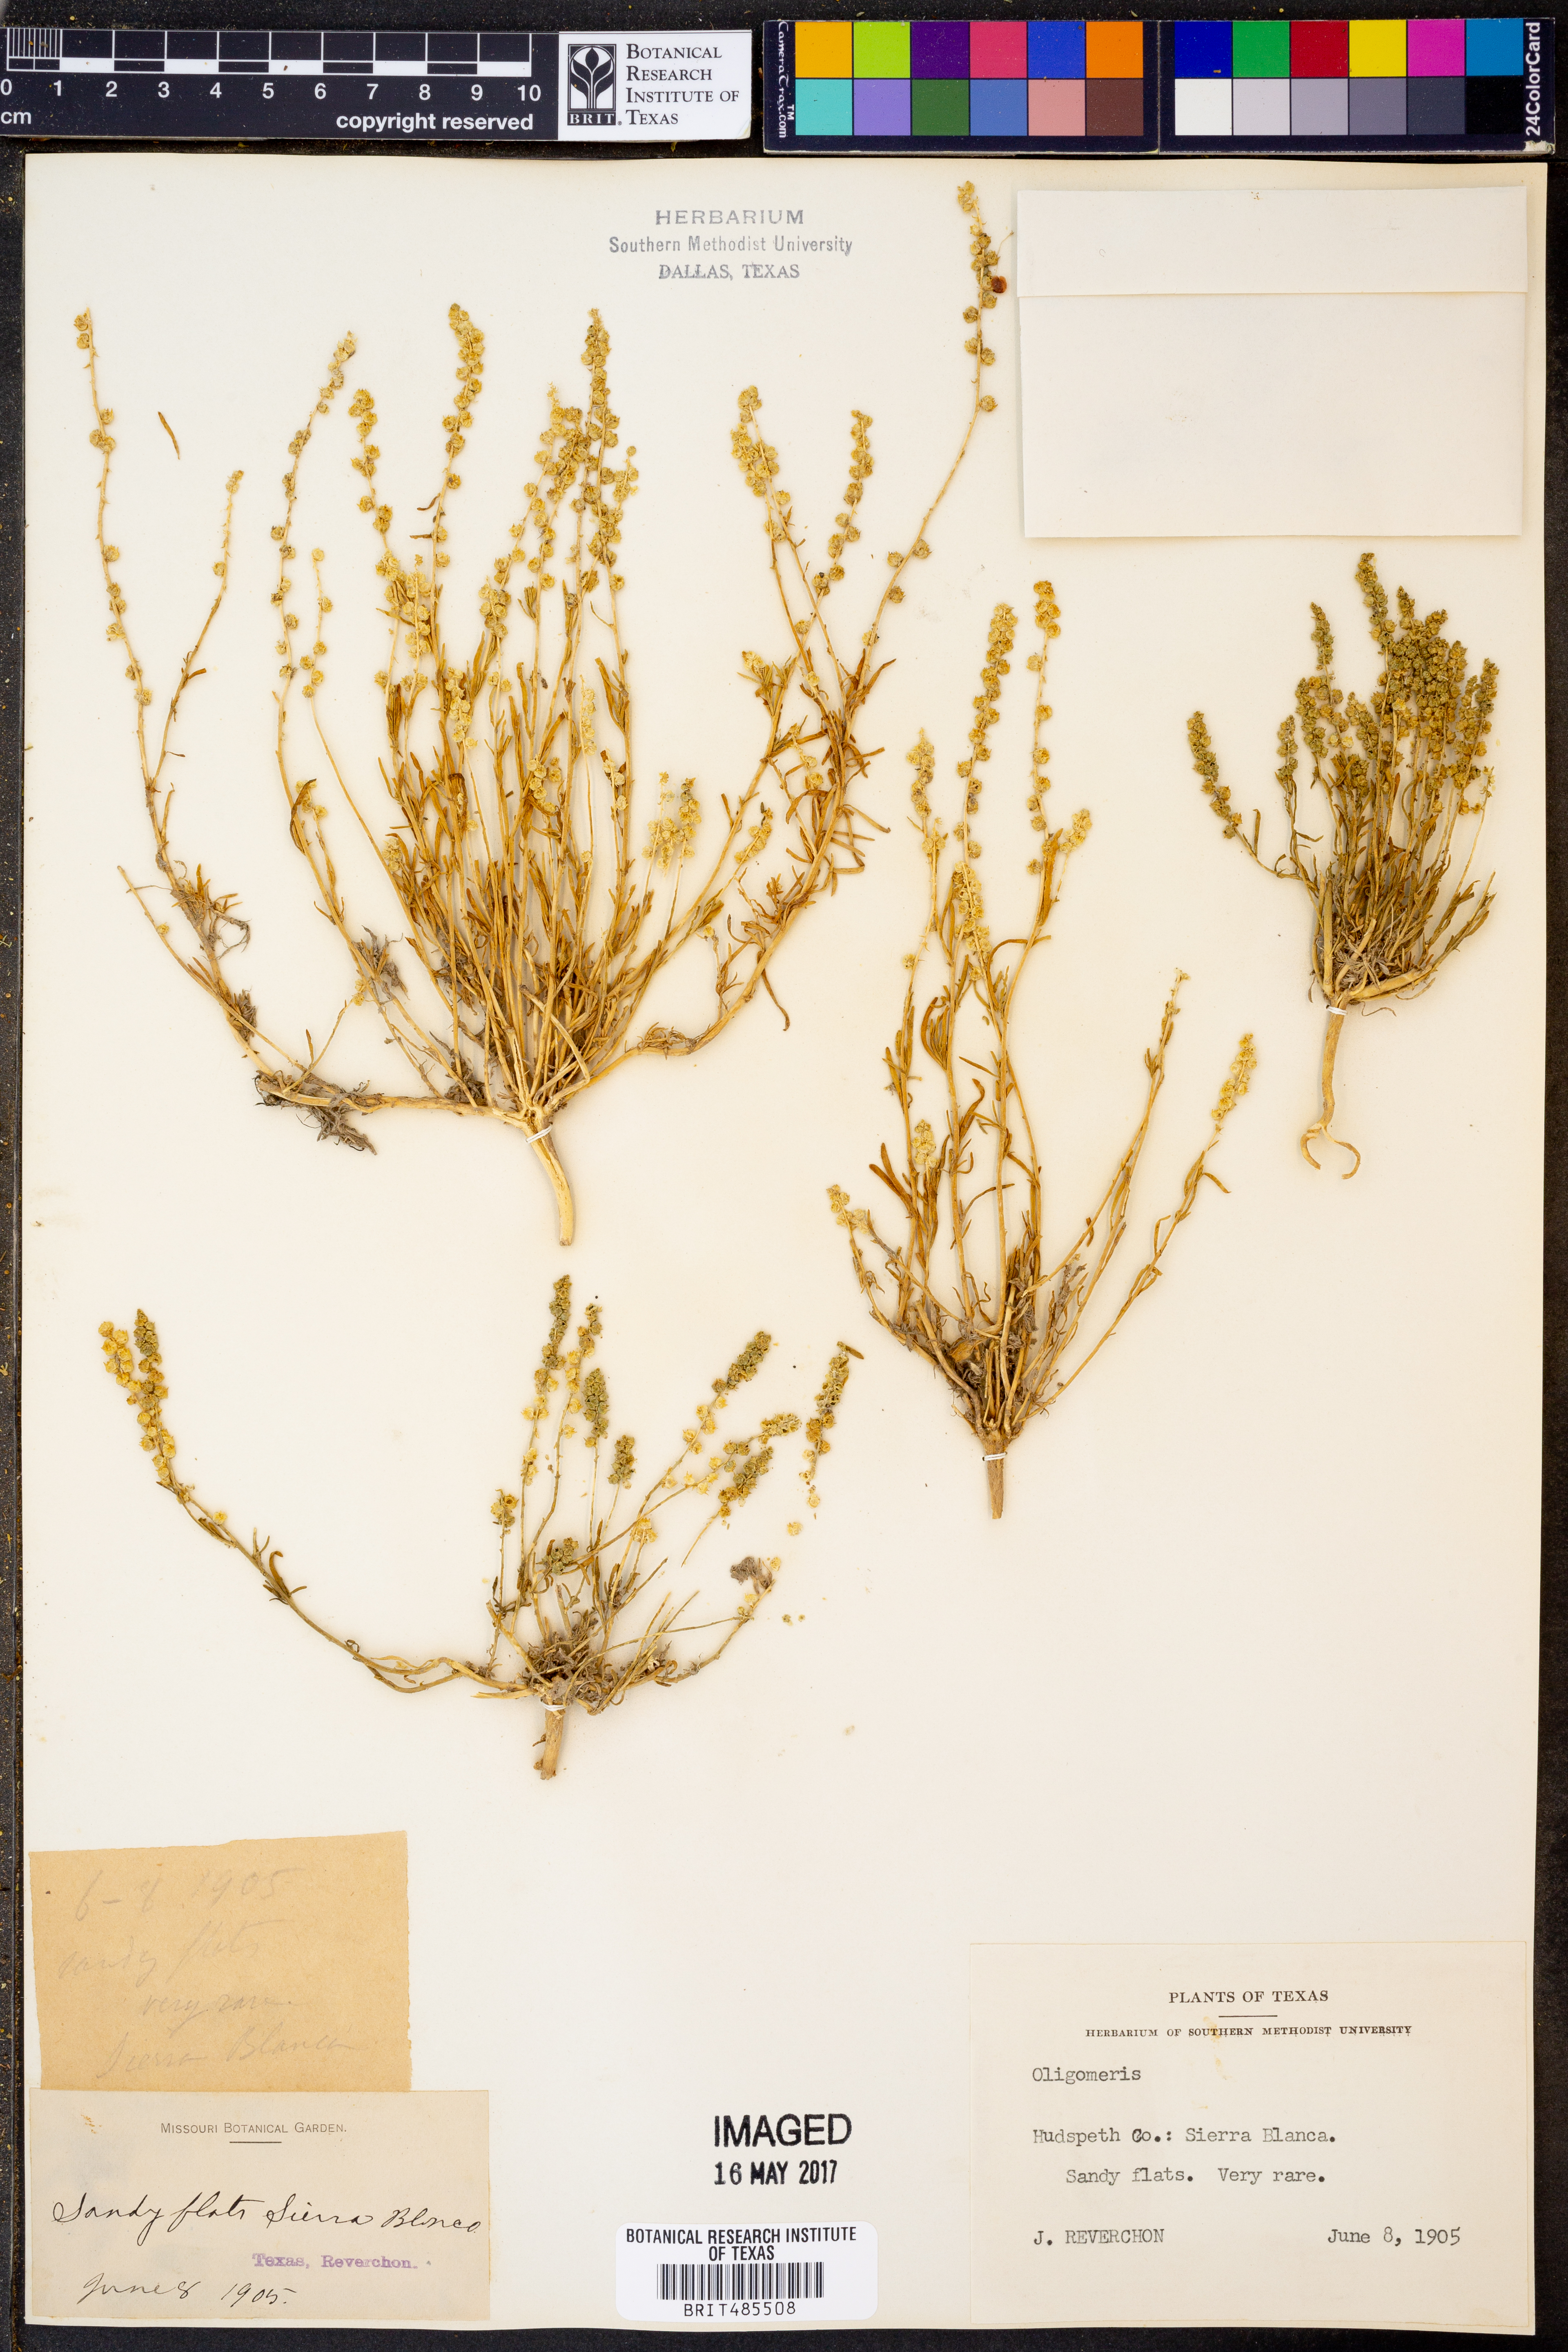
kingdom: Plantae
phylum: Tracheophyta
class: Magnoliopsida
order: Brassicales
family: Resedaceae
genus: Oligomeris
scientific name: Oligomeris
